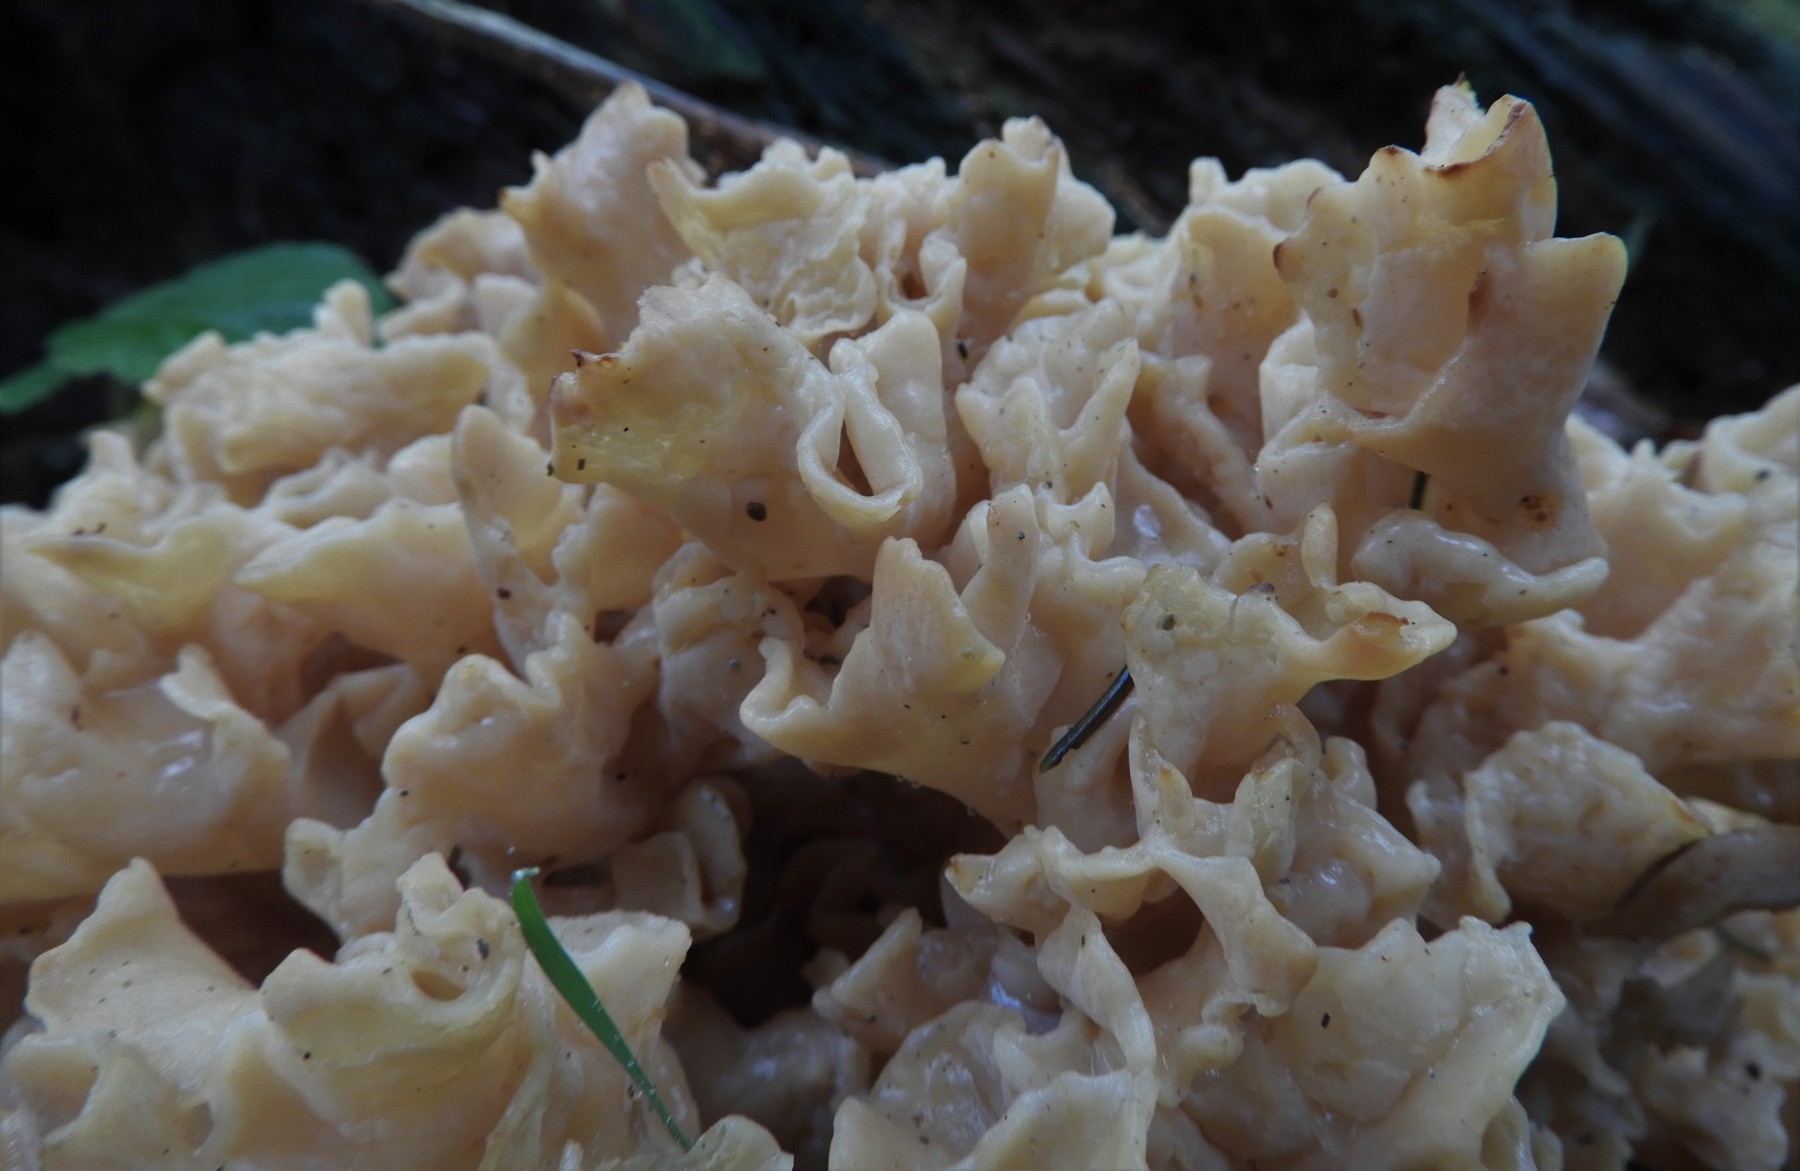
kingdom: Fungi
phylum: Basidiomycota
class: Agaricomycetes
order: Polyporales
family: Sparassidaceae
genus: Sparassis
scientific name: Sparassis crispa
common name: kruset blomkålssvamp
